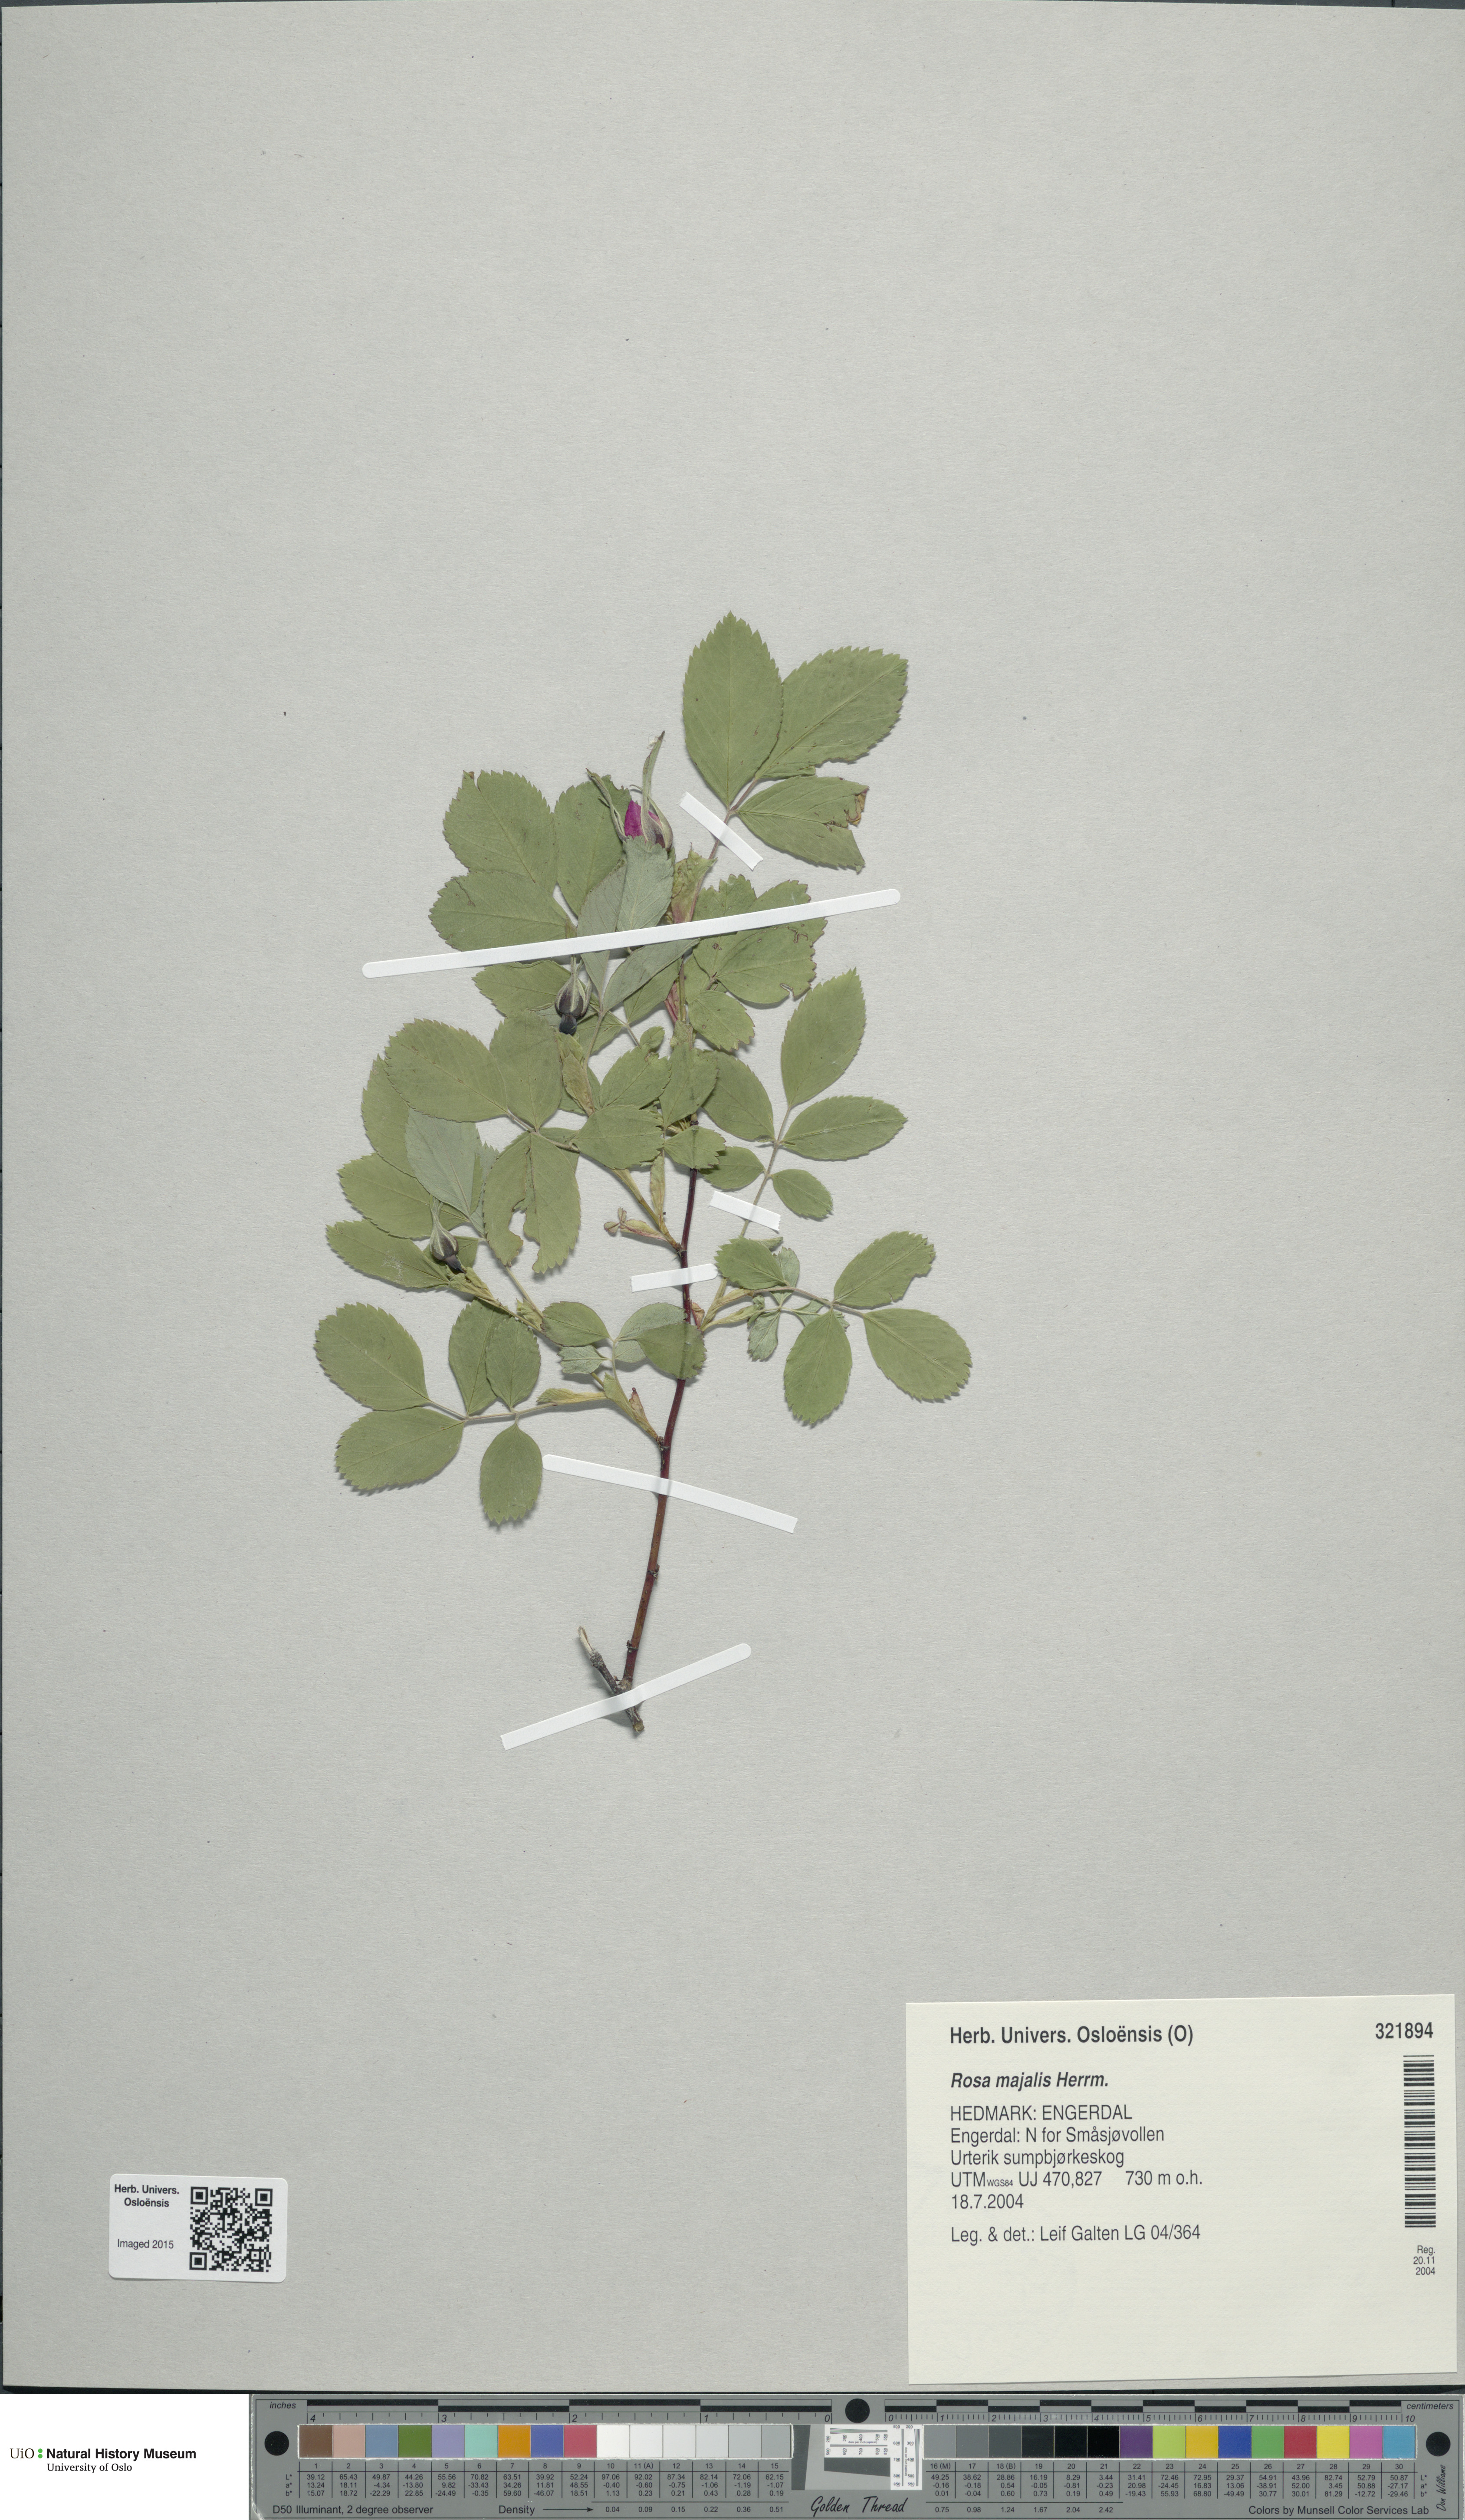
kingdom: Plantae
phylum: Tracheophyta
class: Magnoliopsida
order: Rosales
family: Rosaceae
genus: Rosa
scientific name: Rosa majalis
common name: Cinnamon rose
